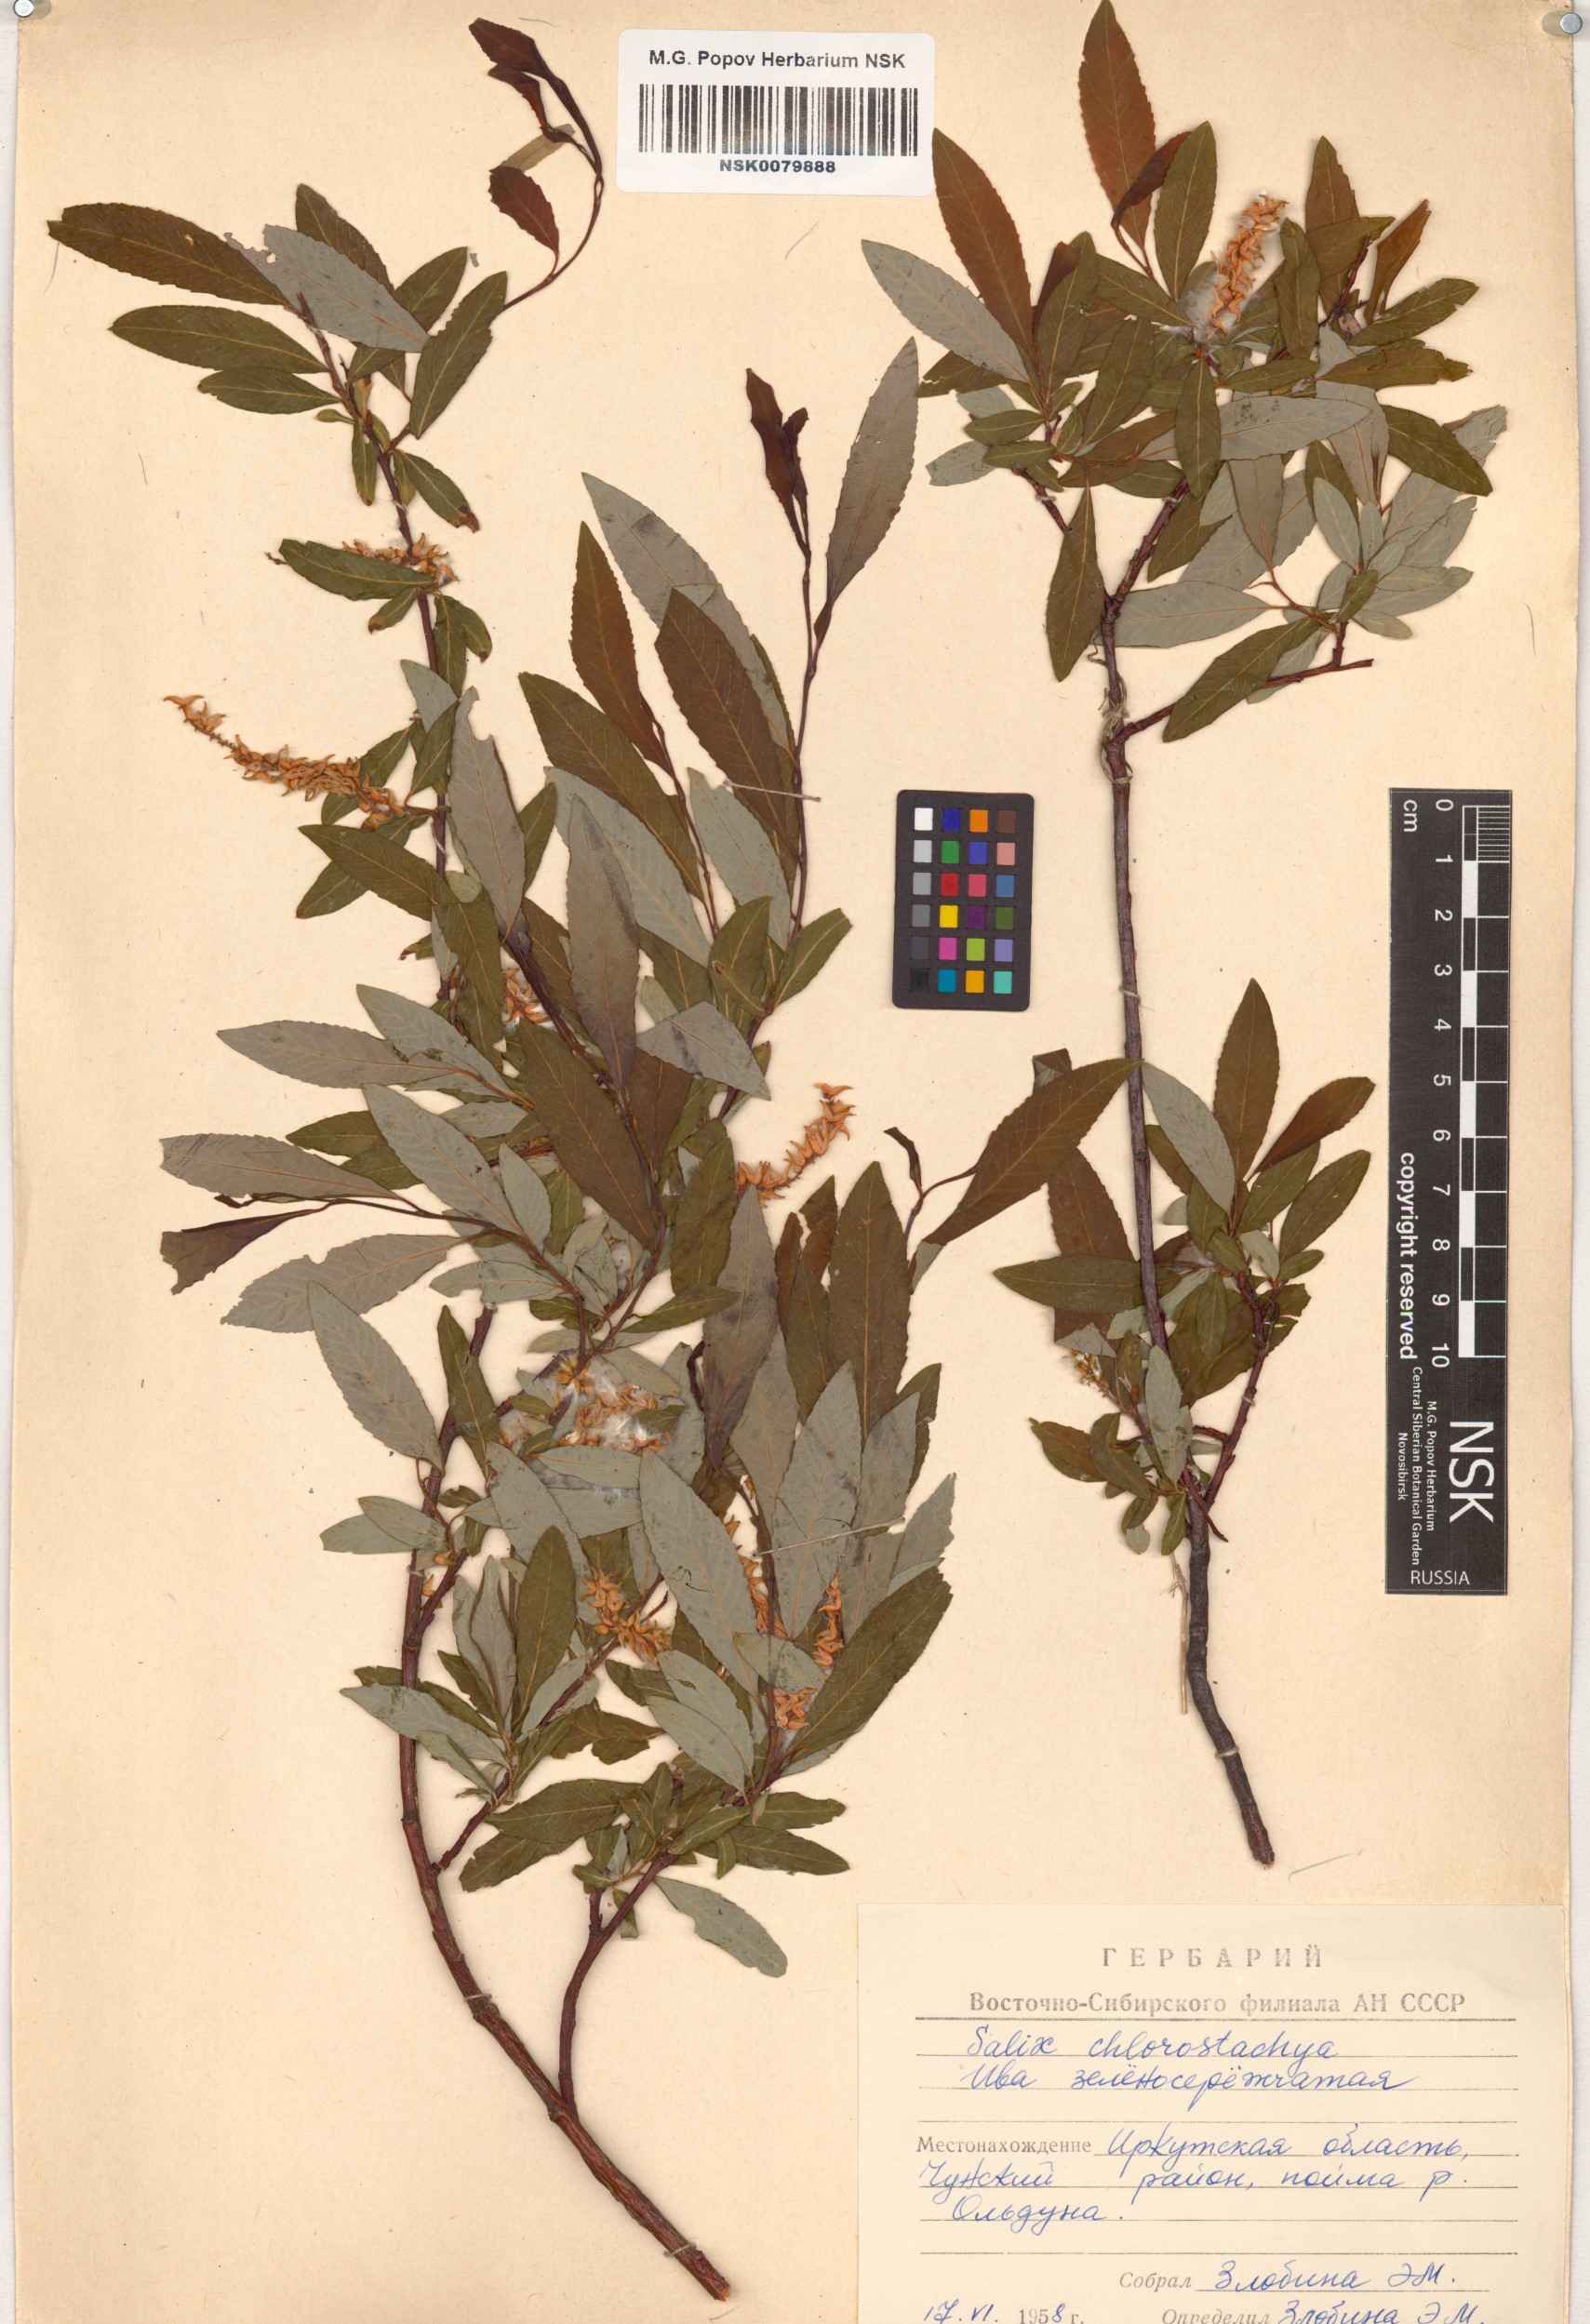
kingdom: Plantae
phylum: Tracheophyta
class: Magnoliopsida
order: Malpighiales
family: Salicaceae
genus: Salix
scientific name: Salix rhamnifolia
